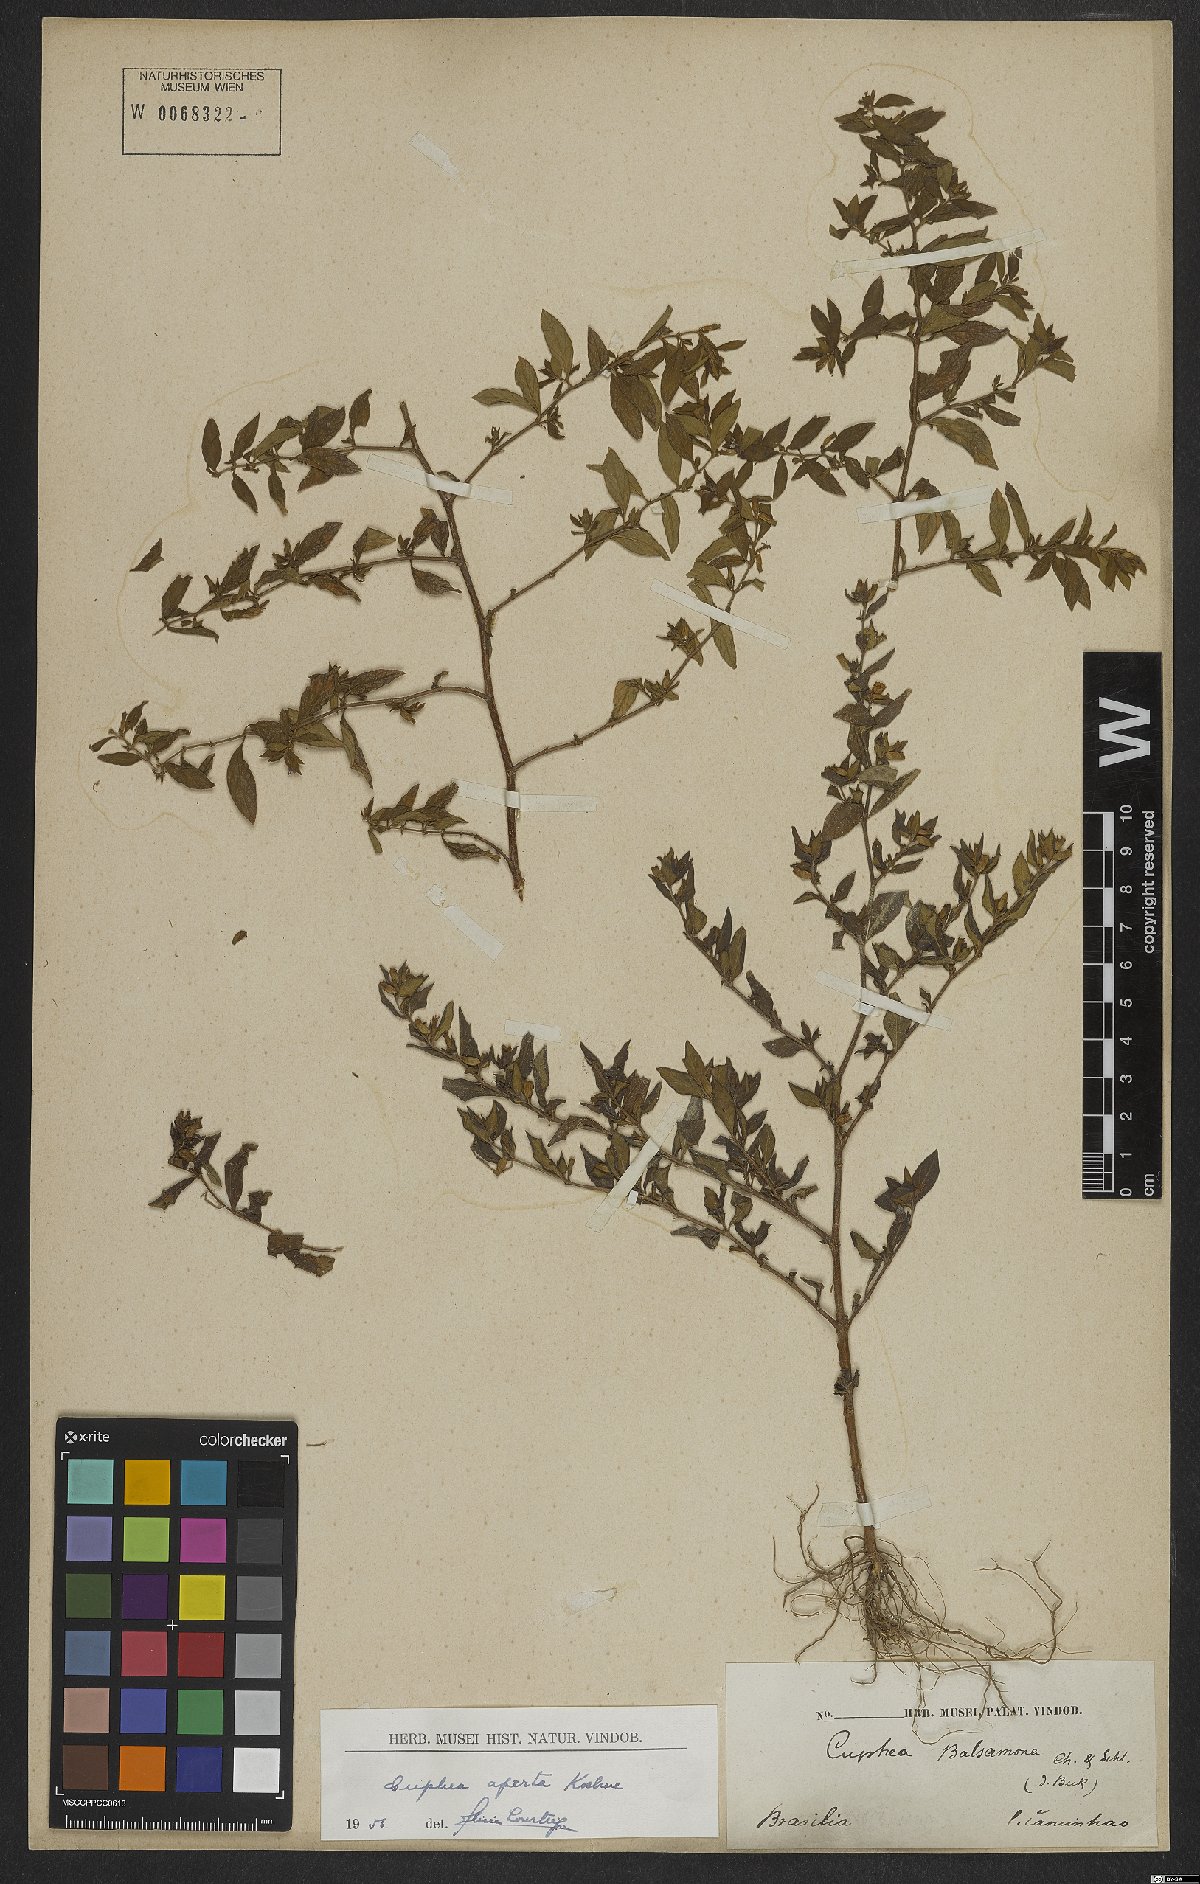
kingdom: Plantae
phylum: Tracheophyta
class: Magnoliopsida
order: Myrtales
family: Lythraceae
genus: Cuphea
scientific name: Cuphea aperta
